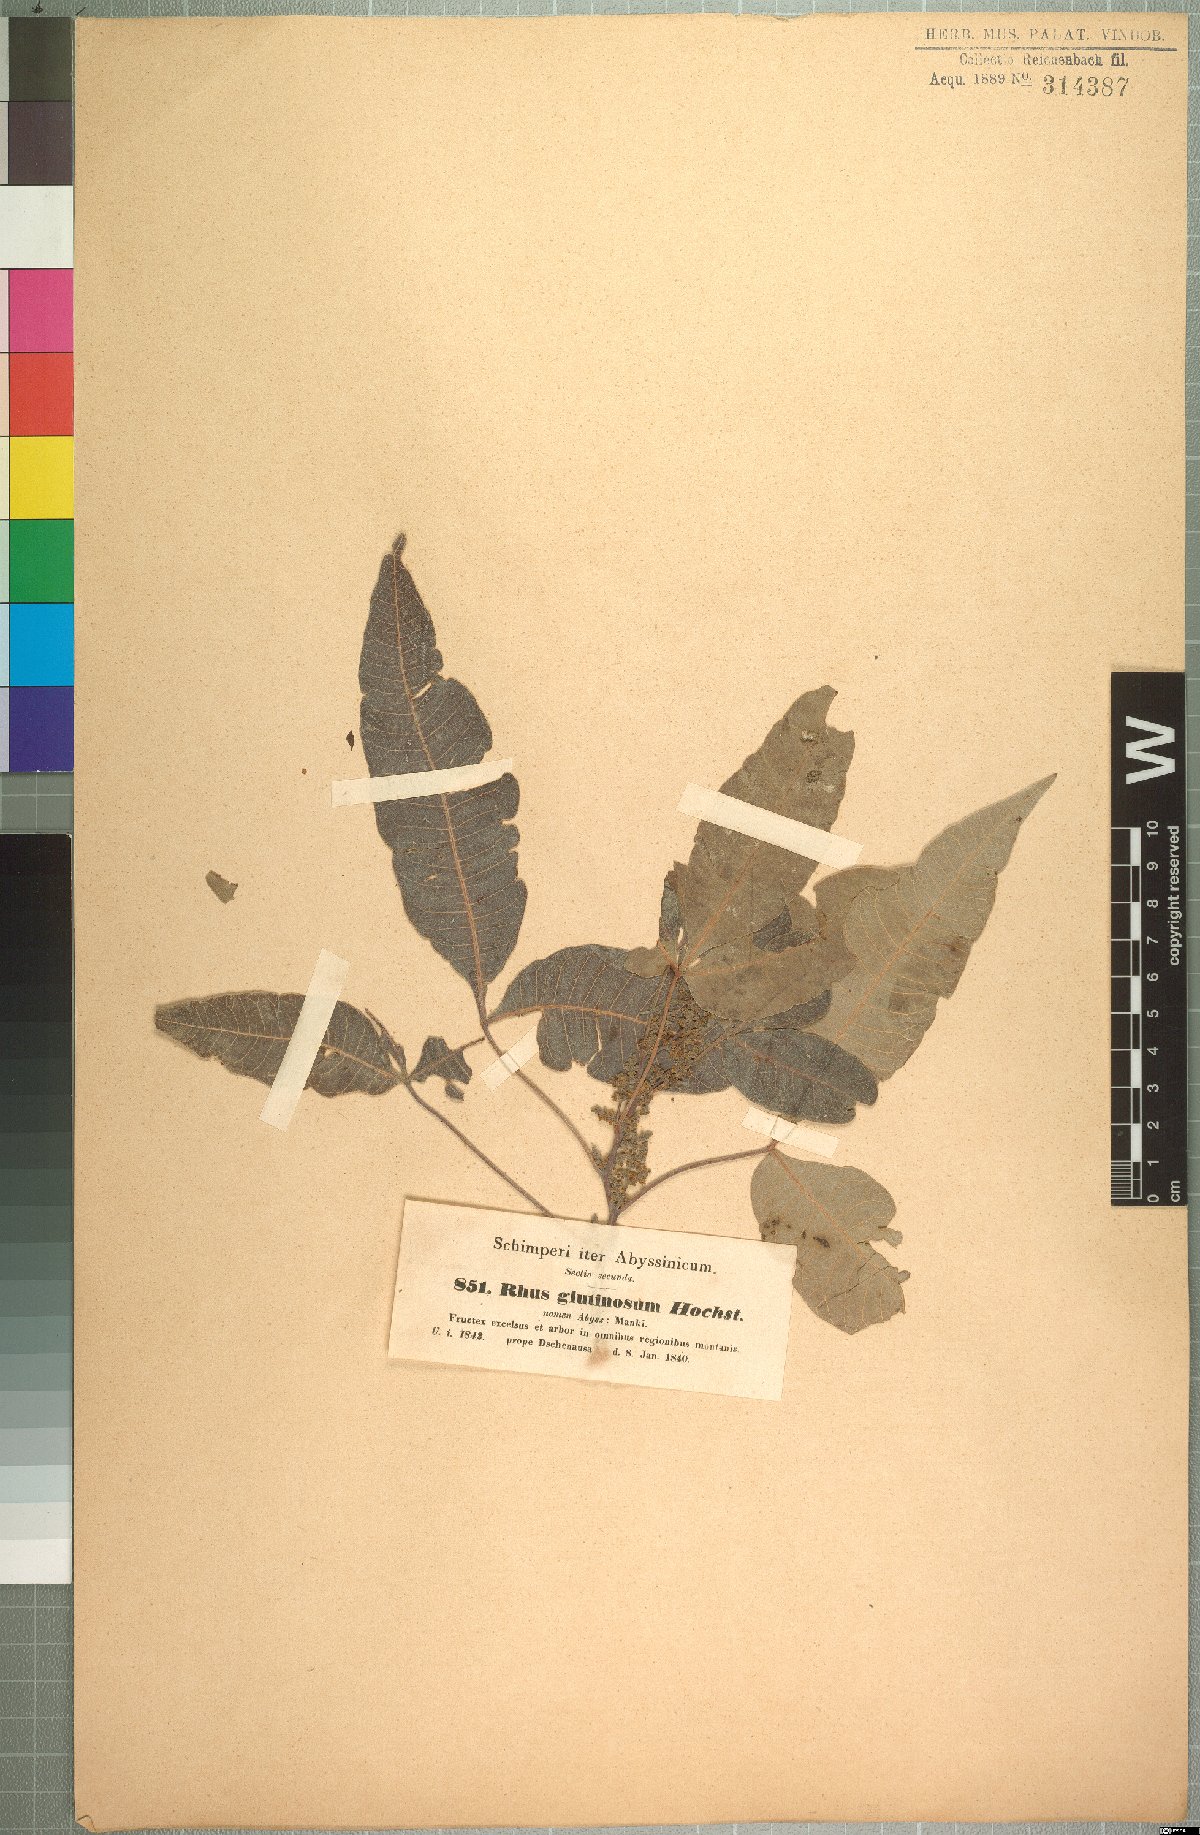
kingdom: Plantae
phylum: Tracheophyta
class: Magnoliopsida
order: Sapindales
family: Anacardiaceae
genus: Searsia
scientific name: Searsia glutinosa
